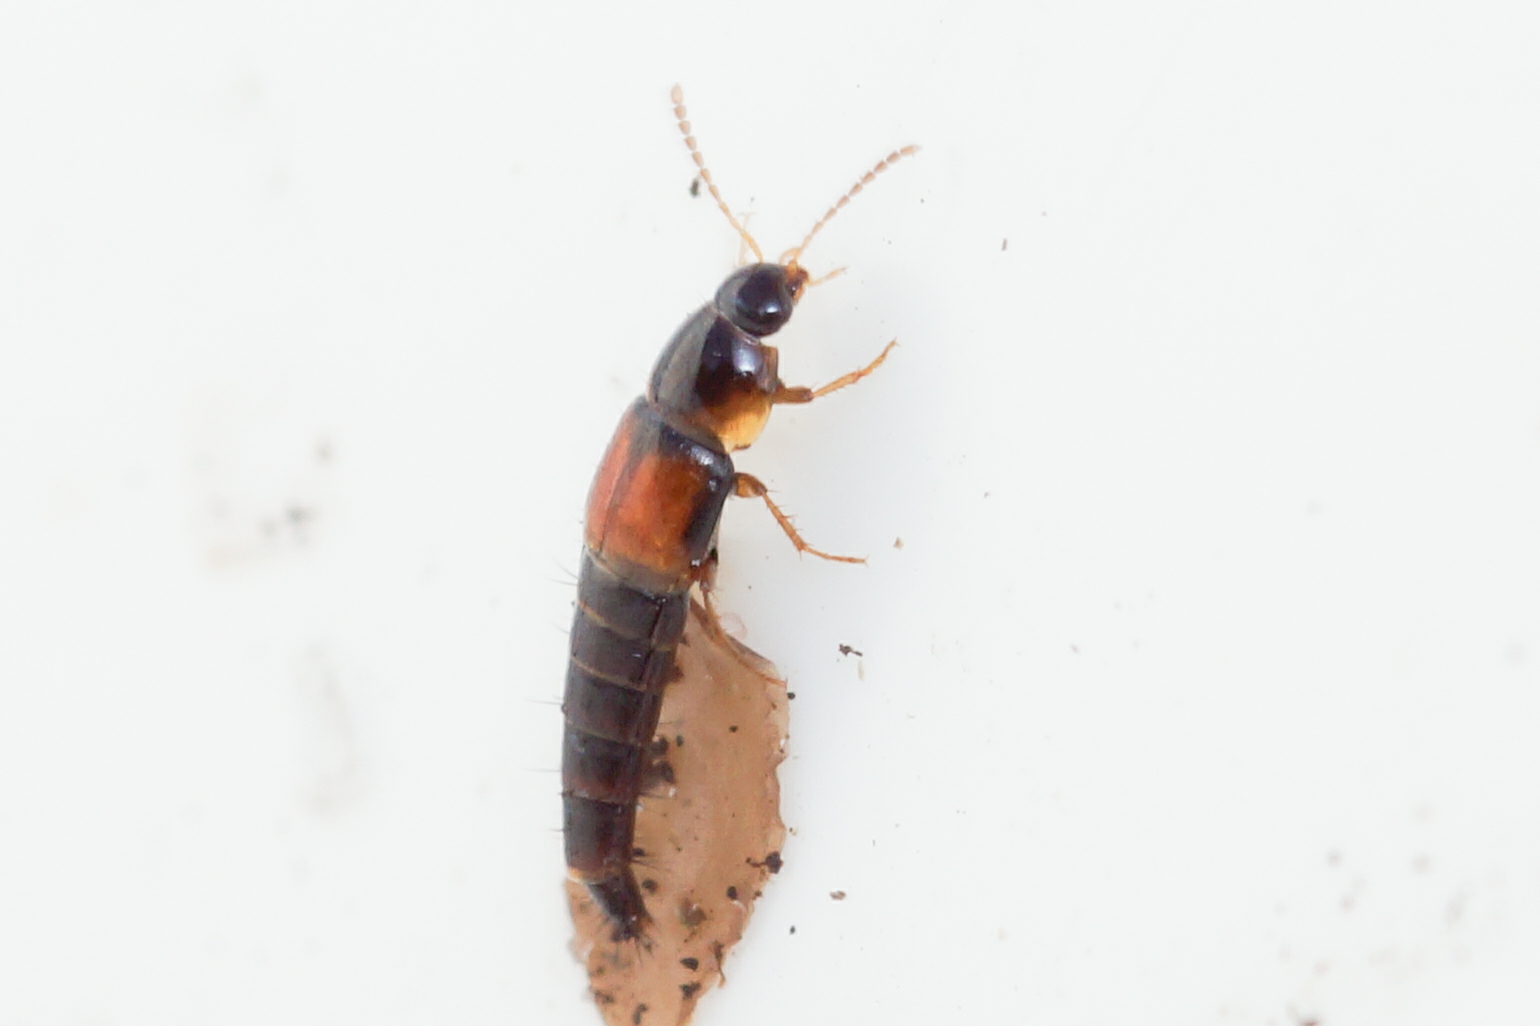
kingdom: Animalia
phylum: Arthropoda
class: Insecta
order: Coleoptera
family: Staphylinidae
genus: Tachyporus
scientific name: Tachyporus hypnorum
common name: Sortplettet agerrovbille
